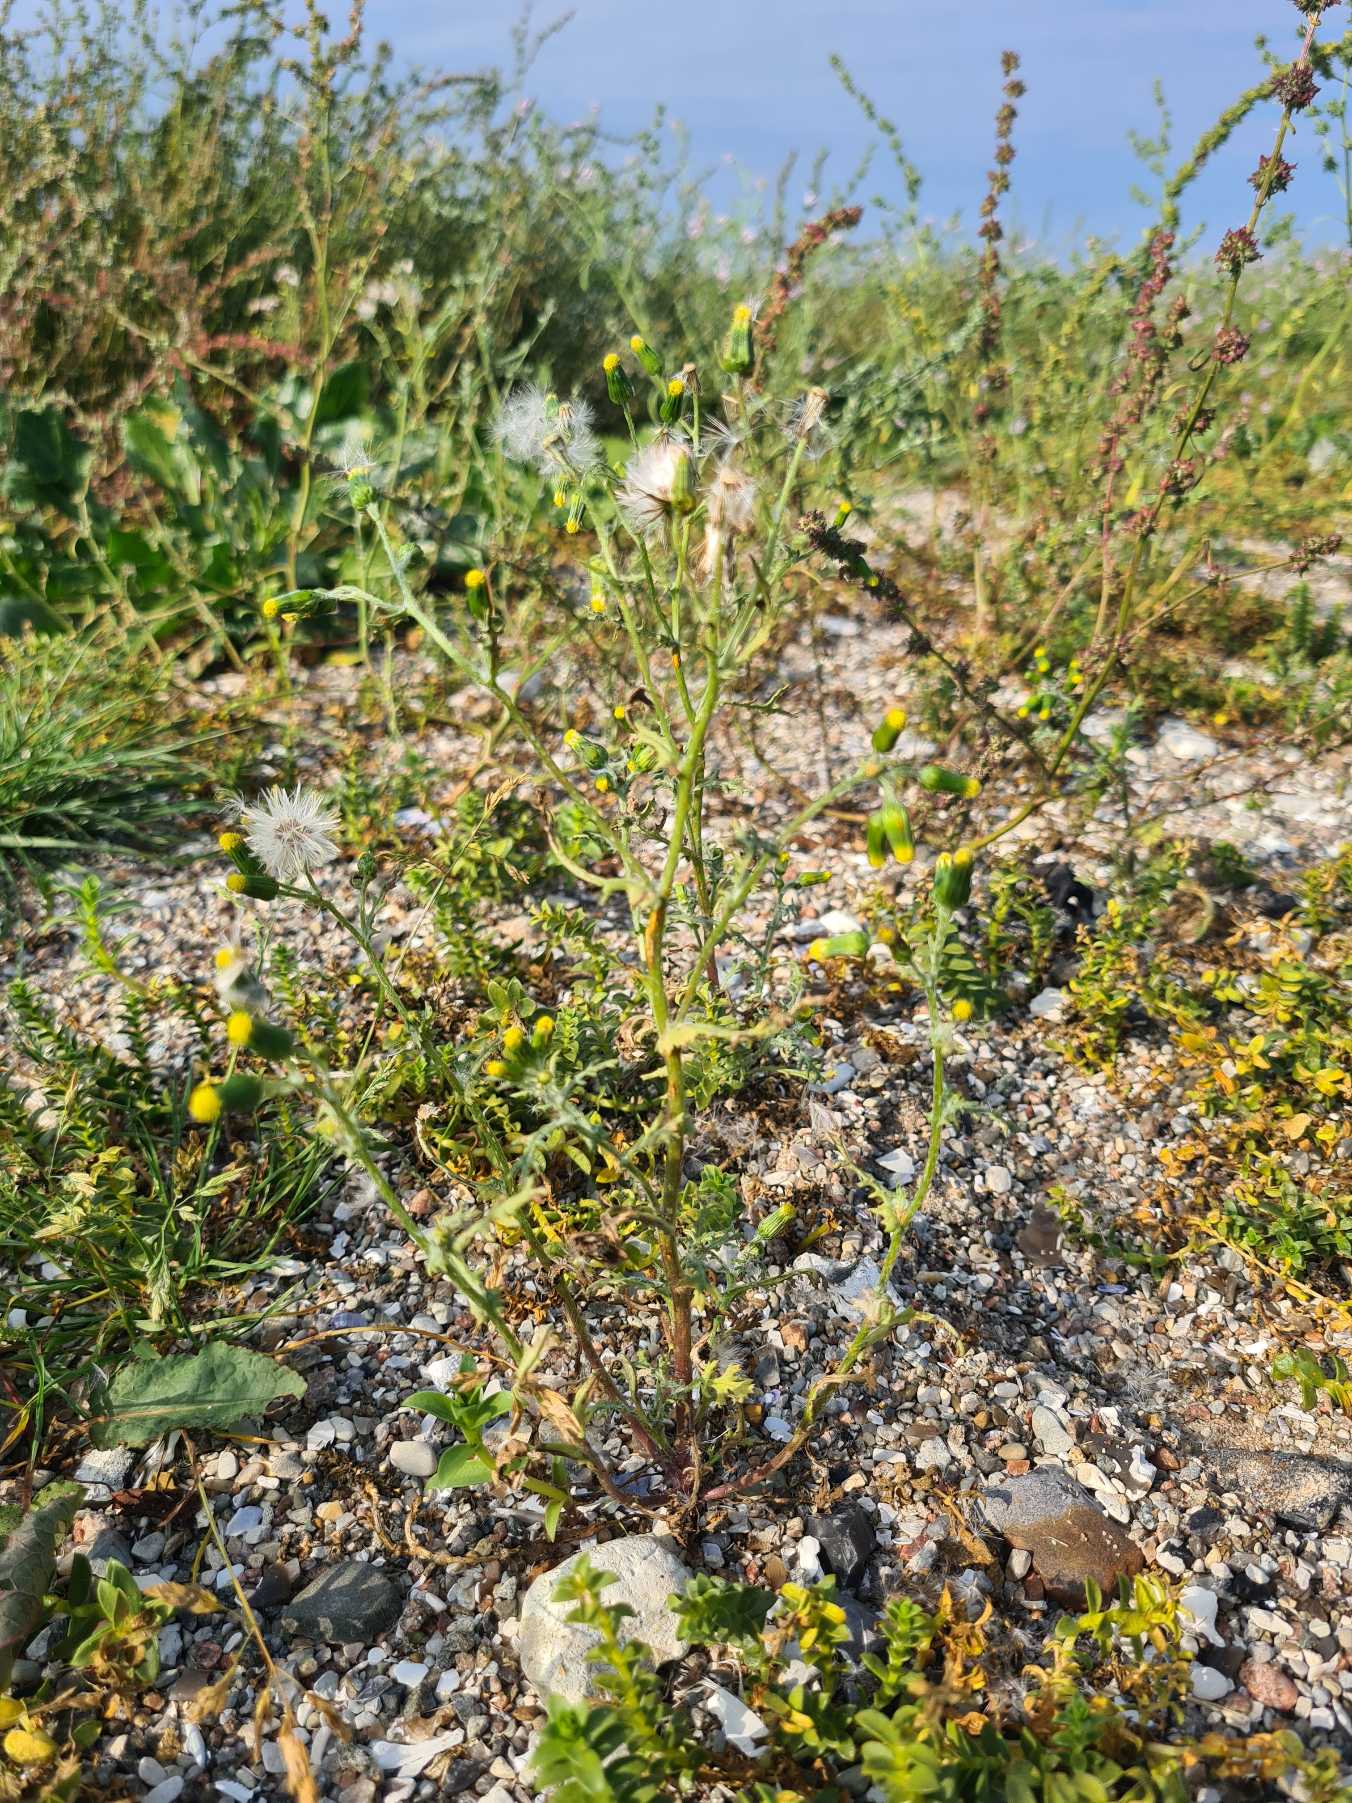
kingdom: Plantae
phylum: Tracheophyta
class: Magnoliopsida
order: Asterales
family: Asteraceae
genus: Senecio
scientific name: Senecio vulgaris
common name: Almindelig brandbæger (varietet)
